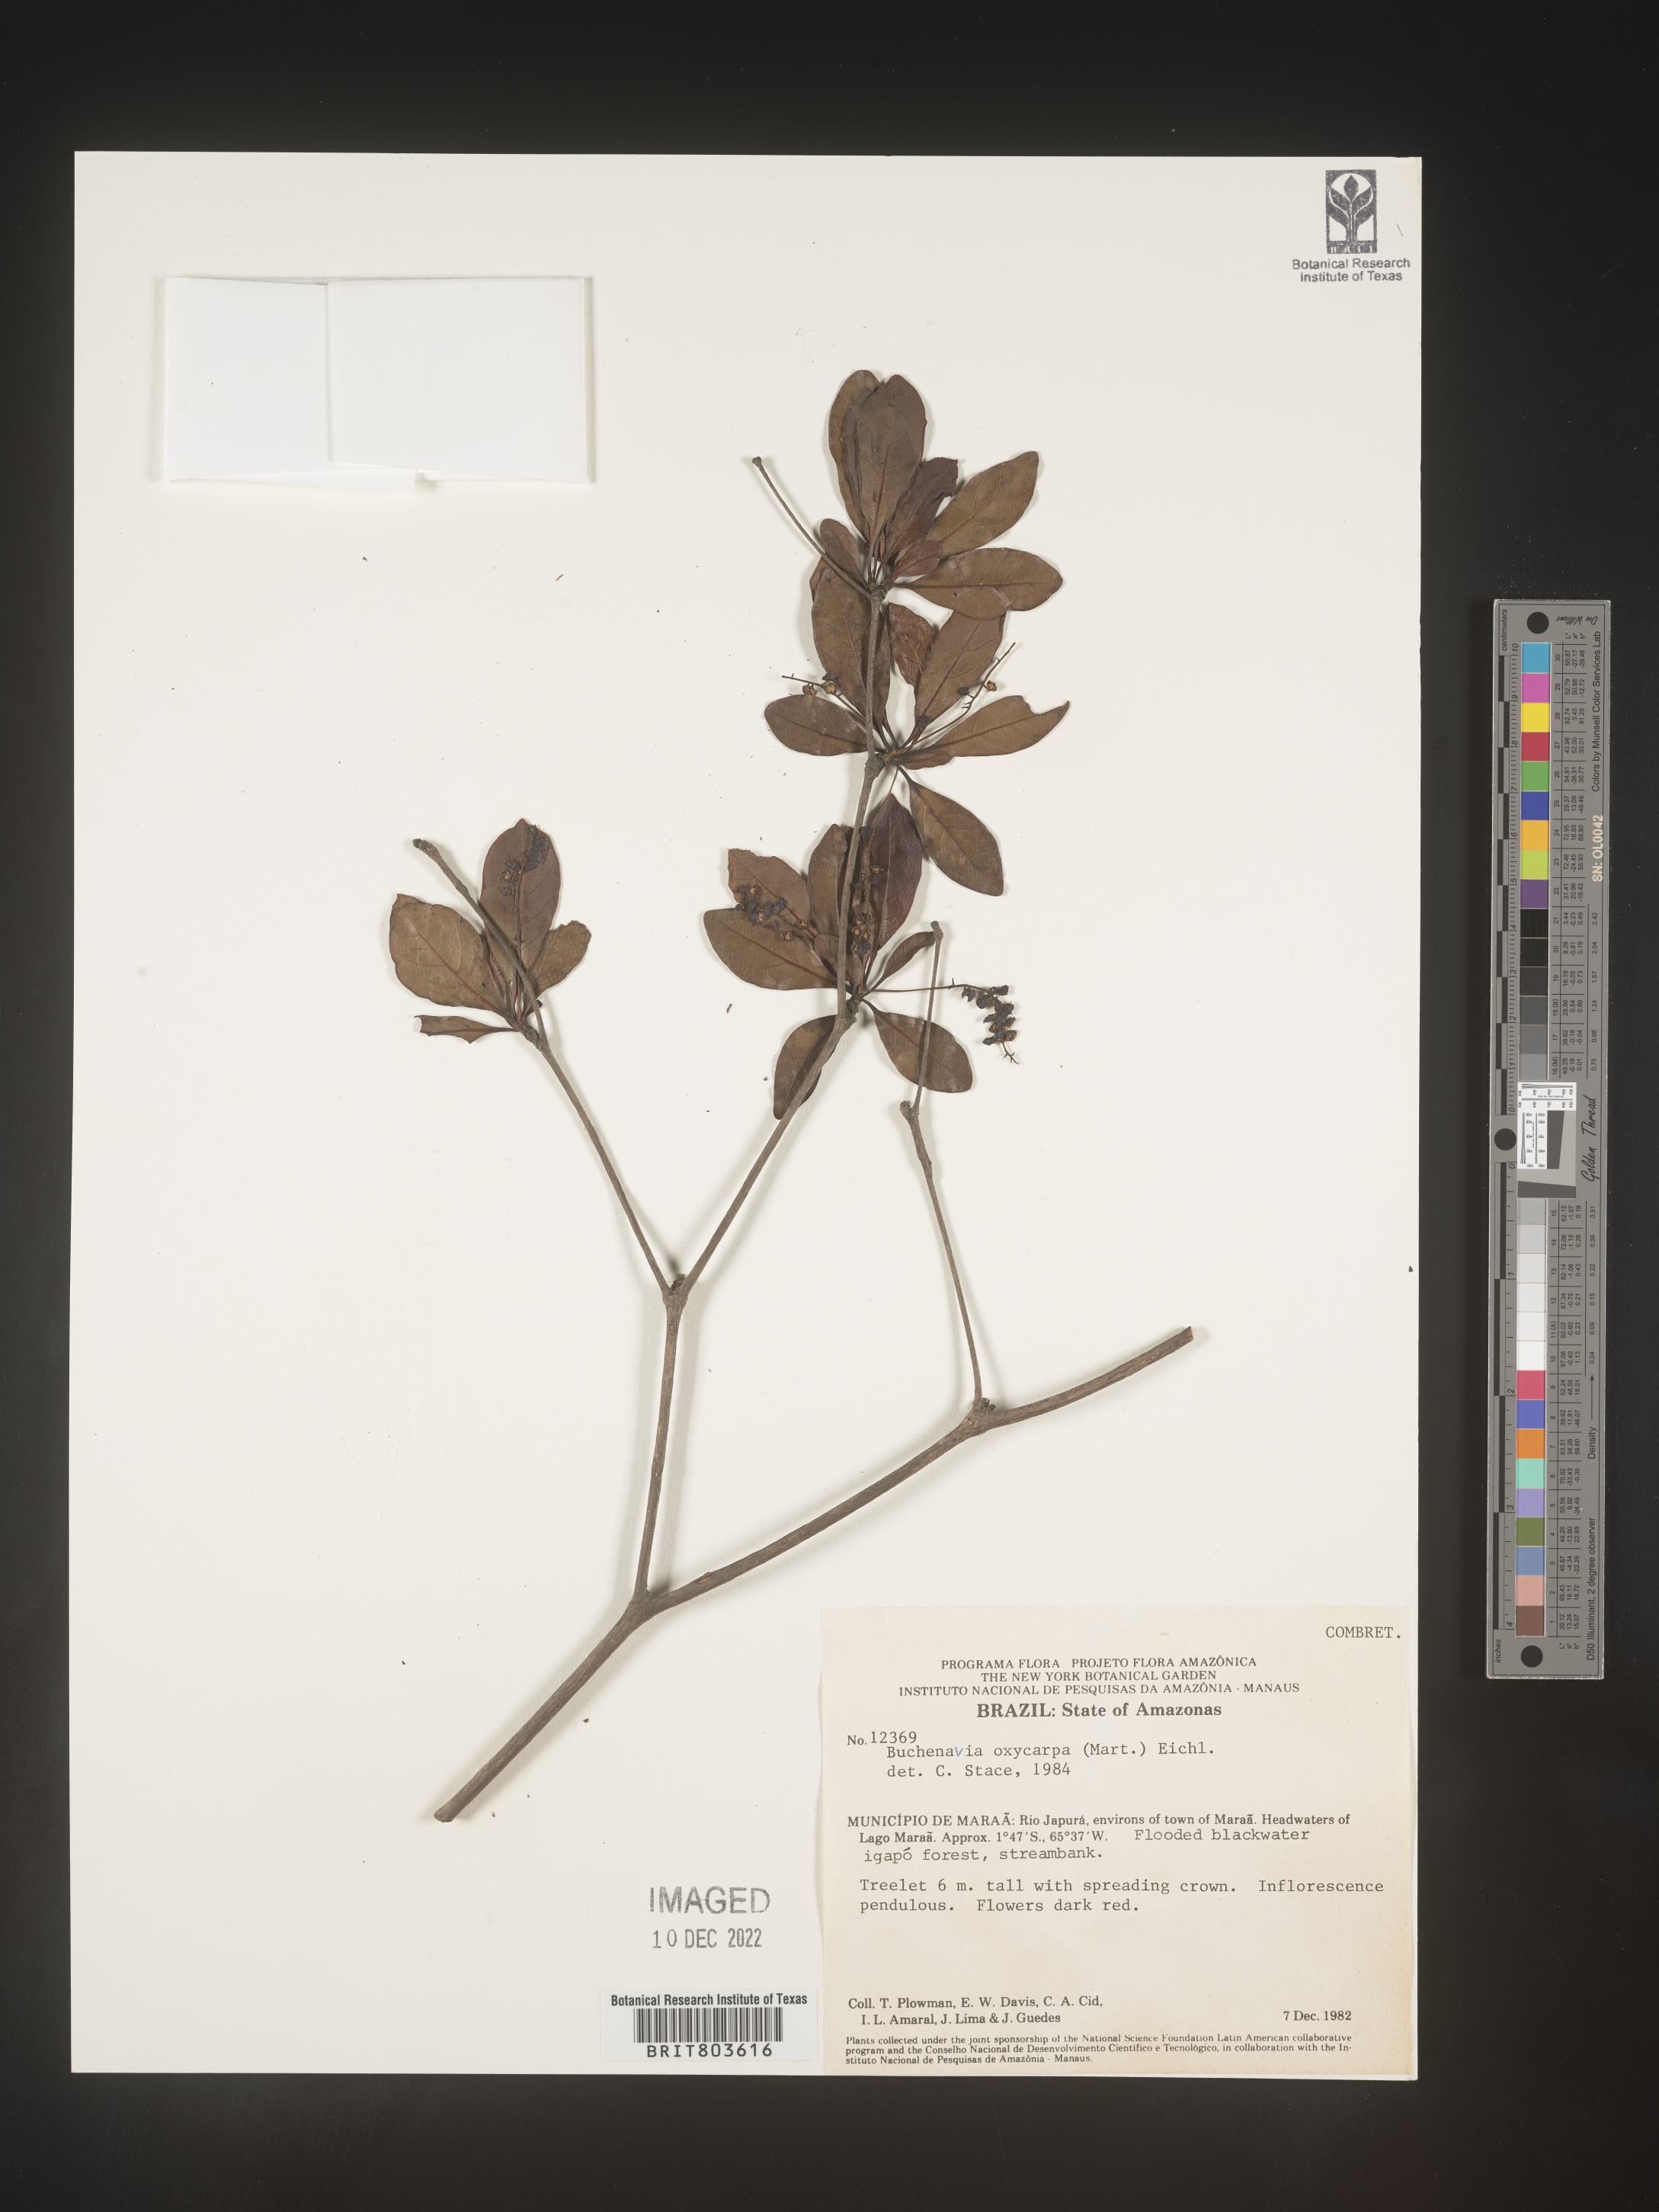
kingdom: Plantae
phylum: Tracheophyta
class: Magnoliopsida
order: Myrtales
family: Combretaceae
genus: Terminalia
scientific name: Terminalia
